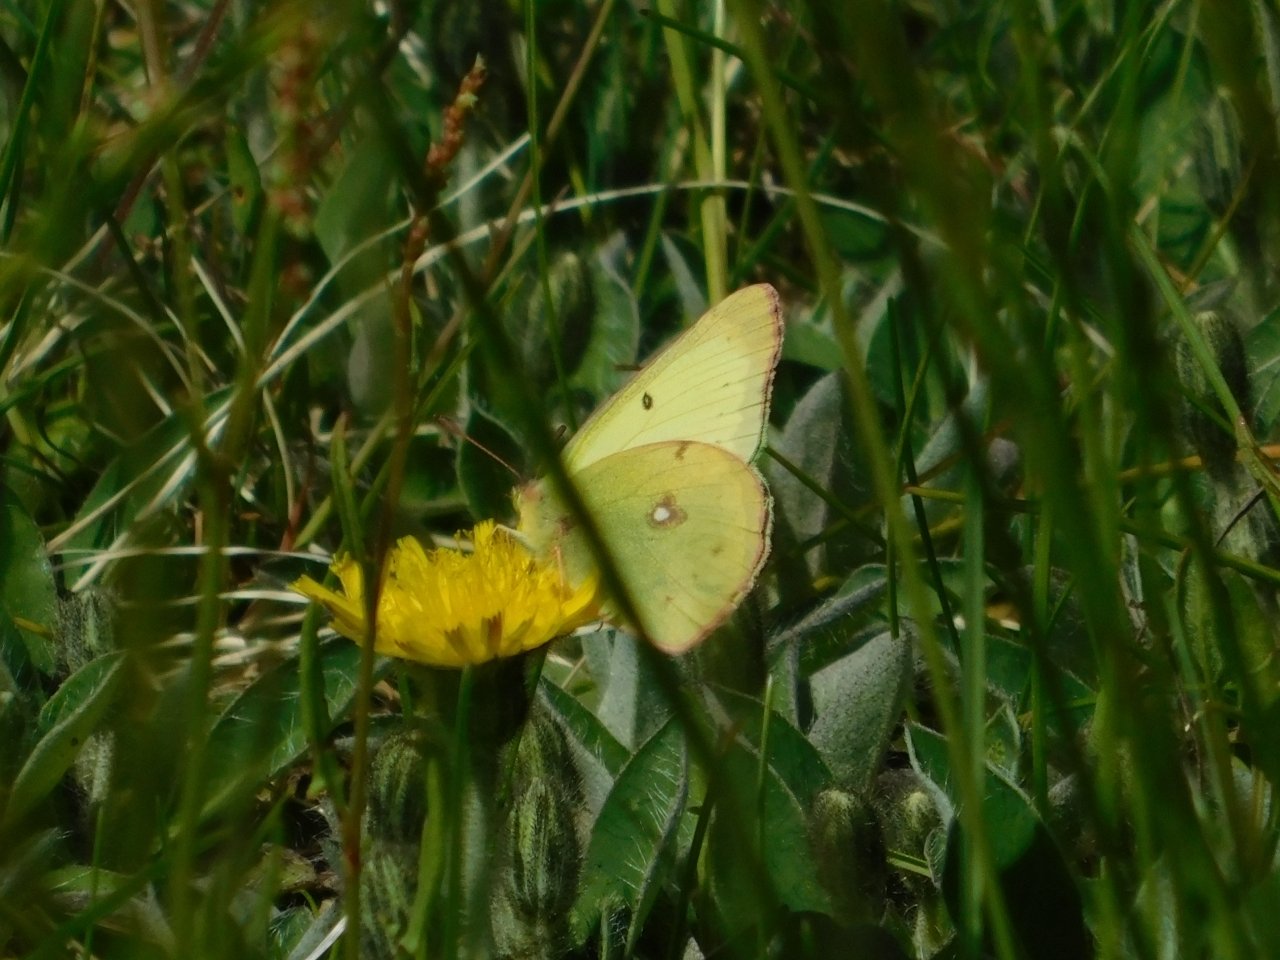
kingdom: Animalia
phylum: Arthropoda
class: Insecta
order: Lepidoptera
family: Pieridae
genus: Colias
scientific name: Colias philodice
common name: Clouded Sulphur
